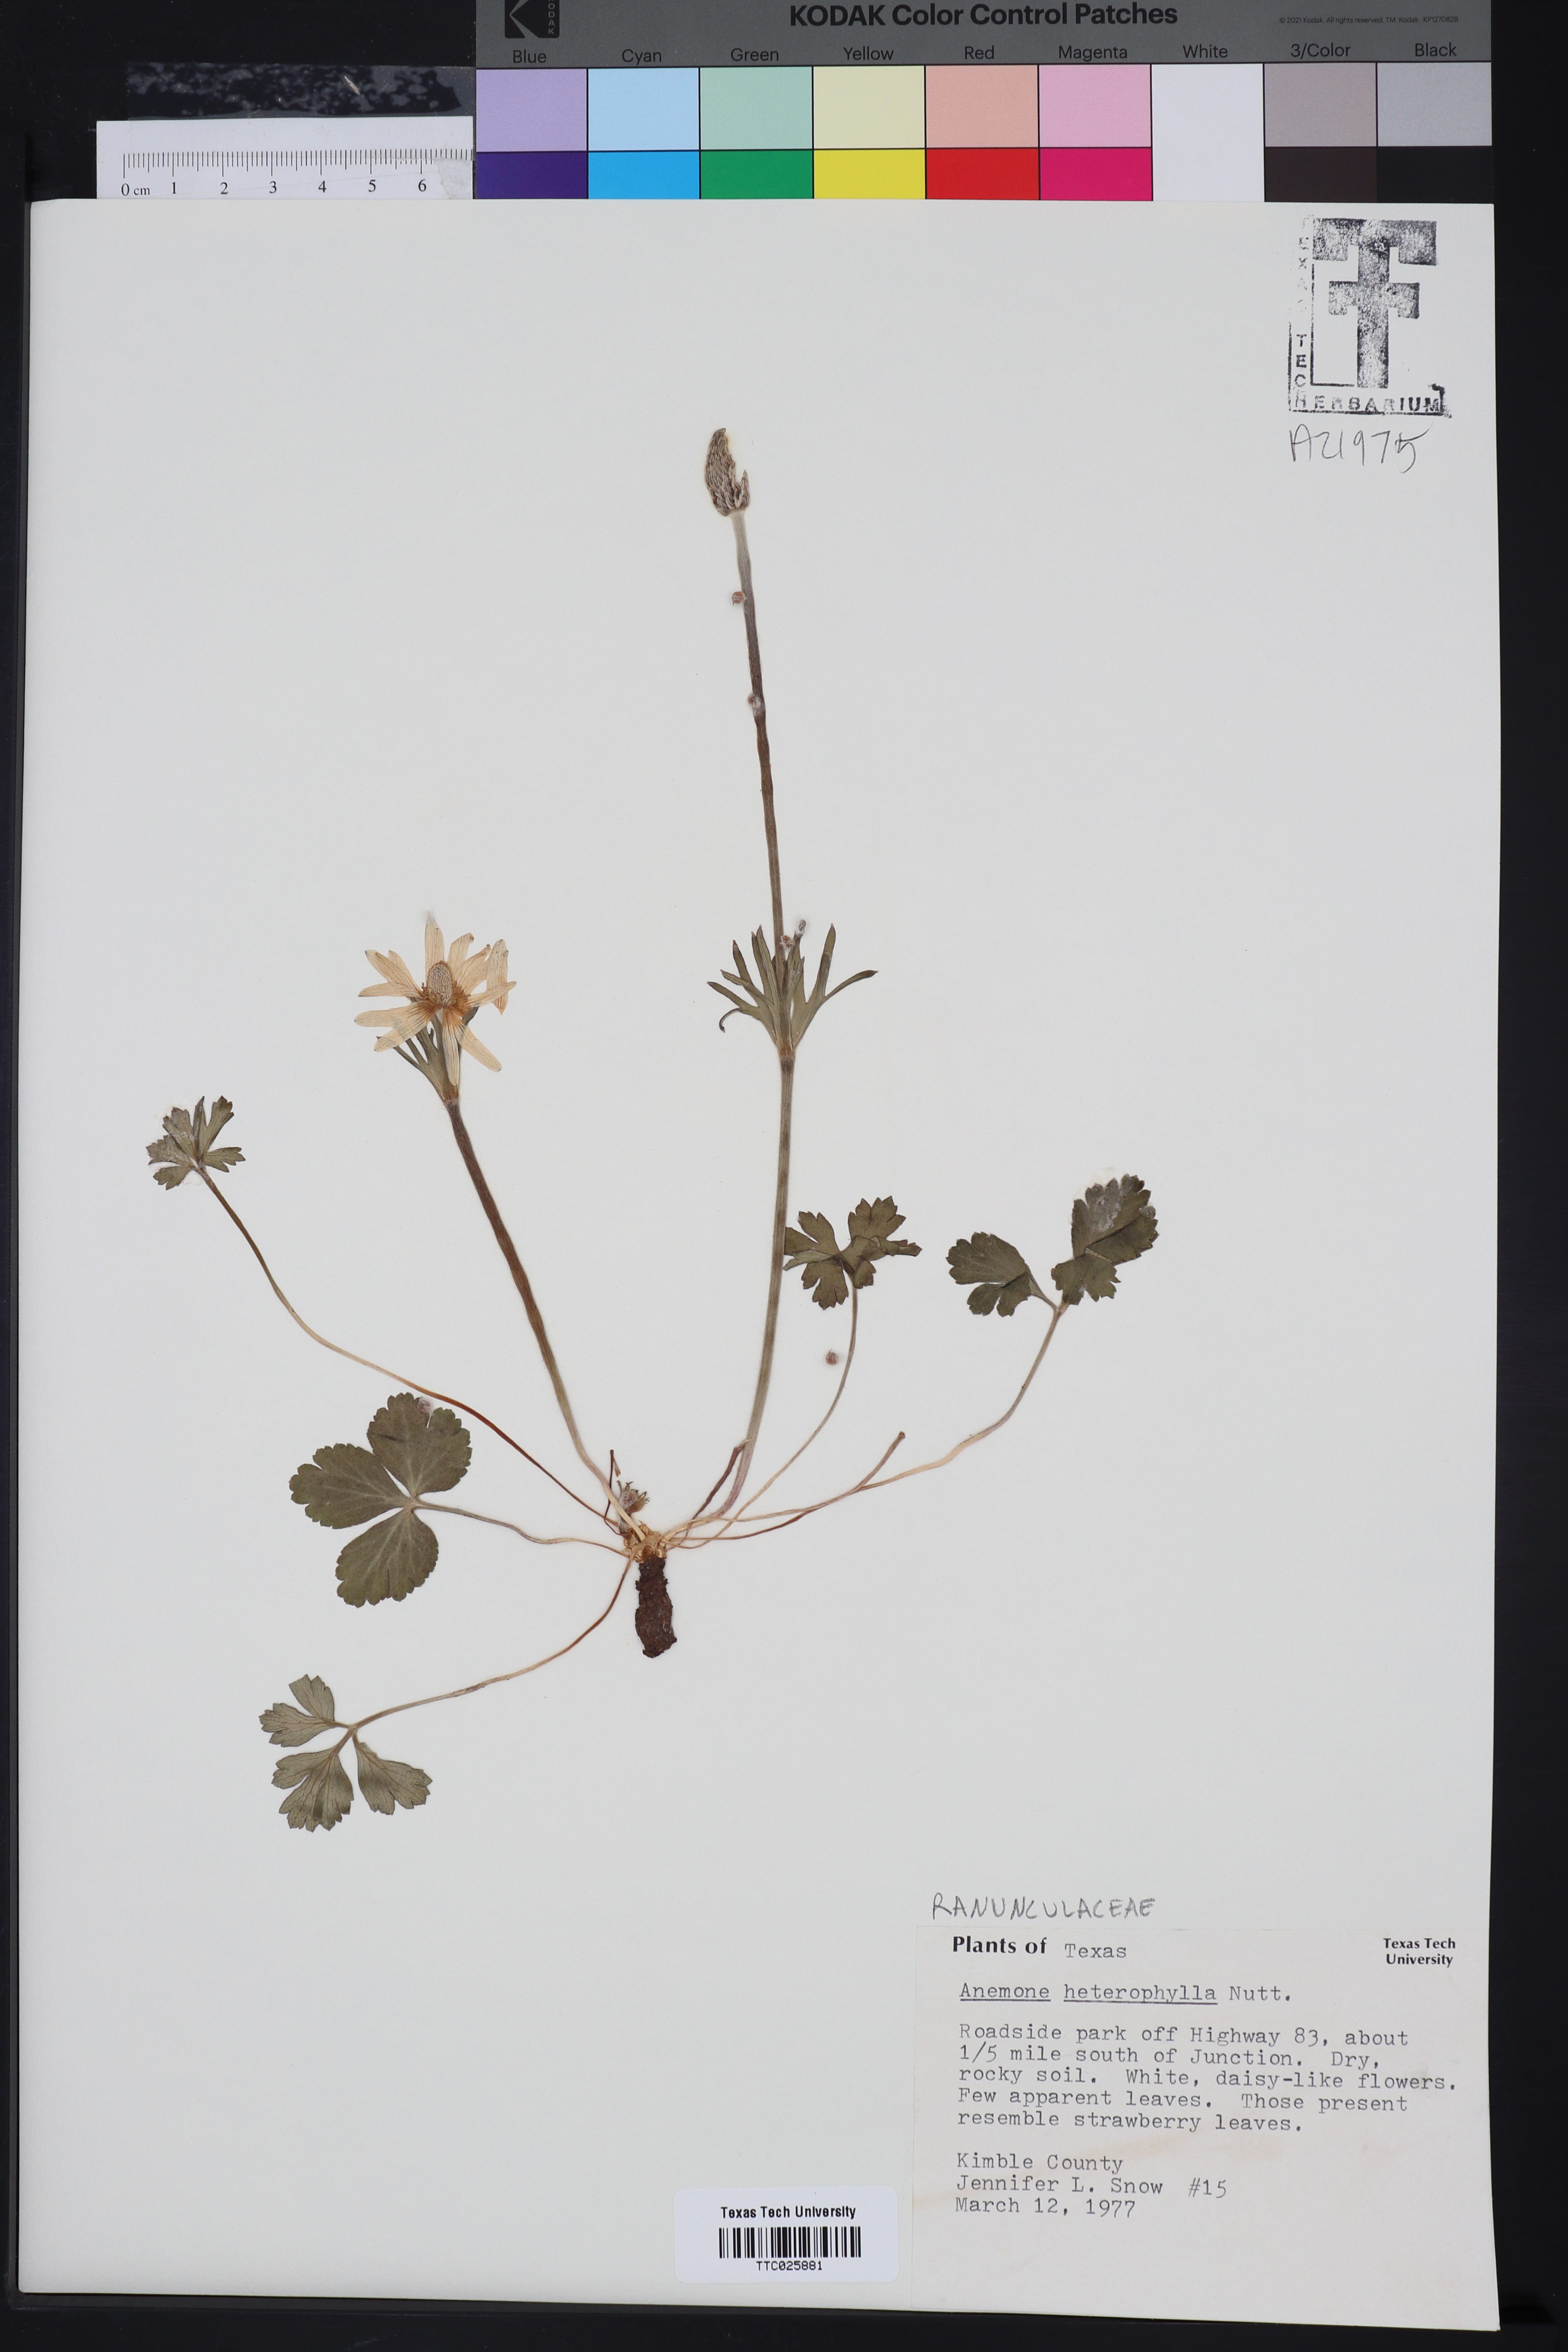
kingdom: Plantae
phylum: Tracheophyta
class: Magnoliopsida
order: Ranunculales
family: Ranunculaceae
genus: Anemone
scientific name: Anemone heterophylla
